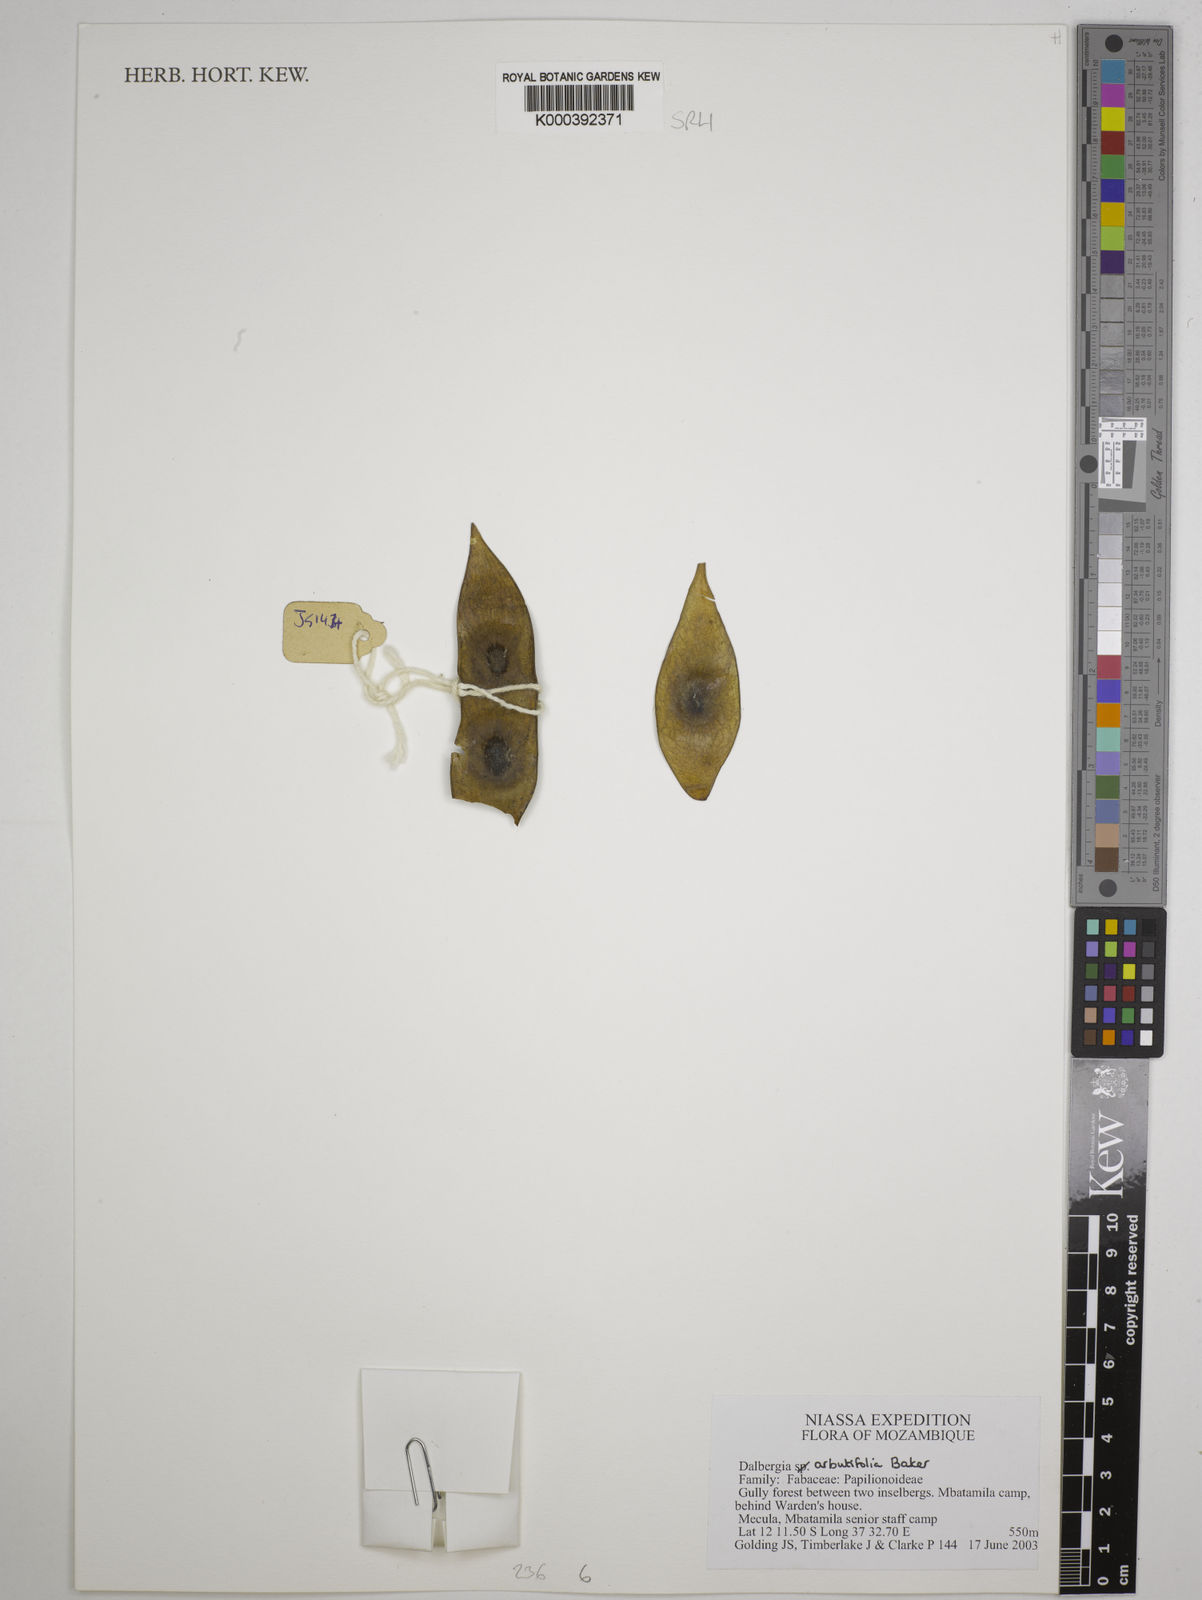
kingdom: Plantae
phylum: Tracheophyta
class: Magnoliopsida
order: Fabales
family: Fabaceae
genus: Dalbergia
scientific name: Dalbergia arbutifolia
